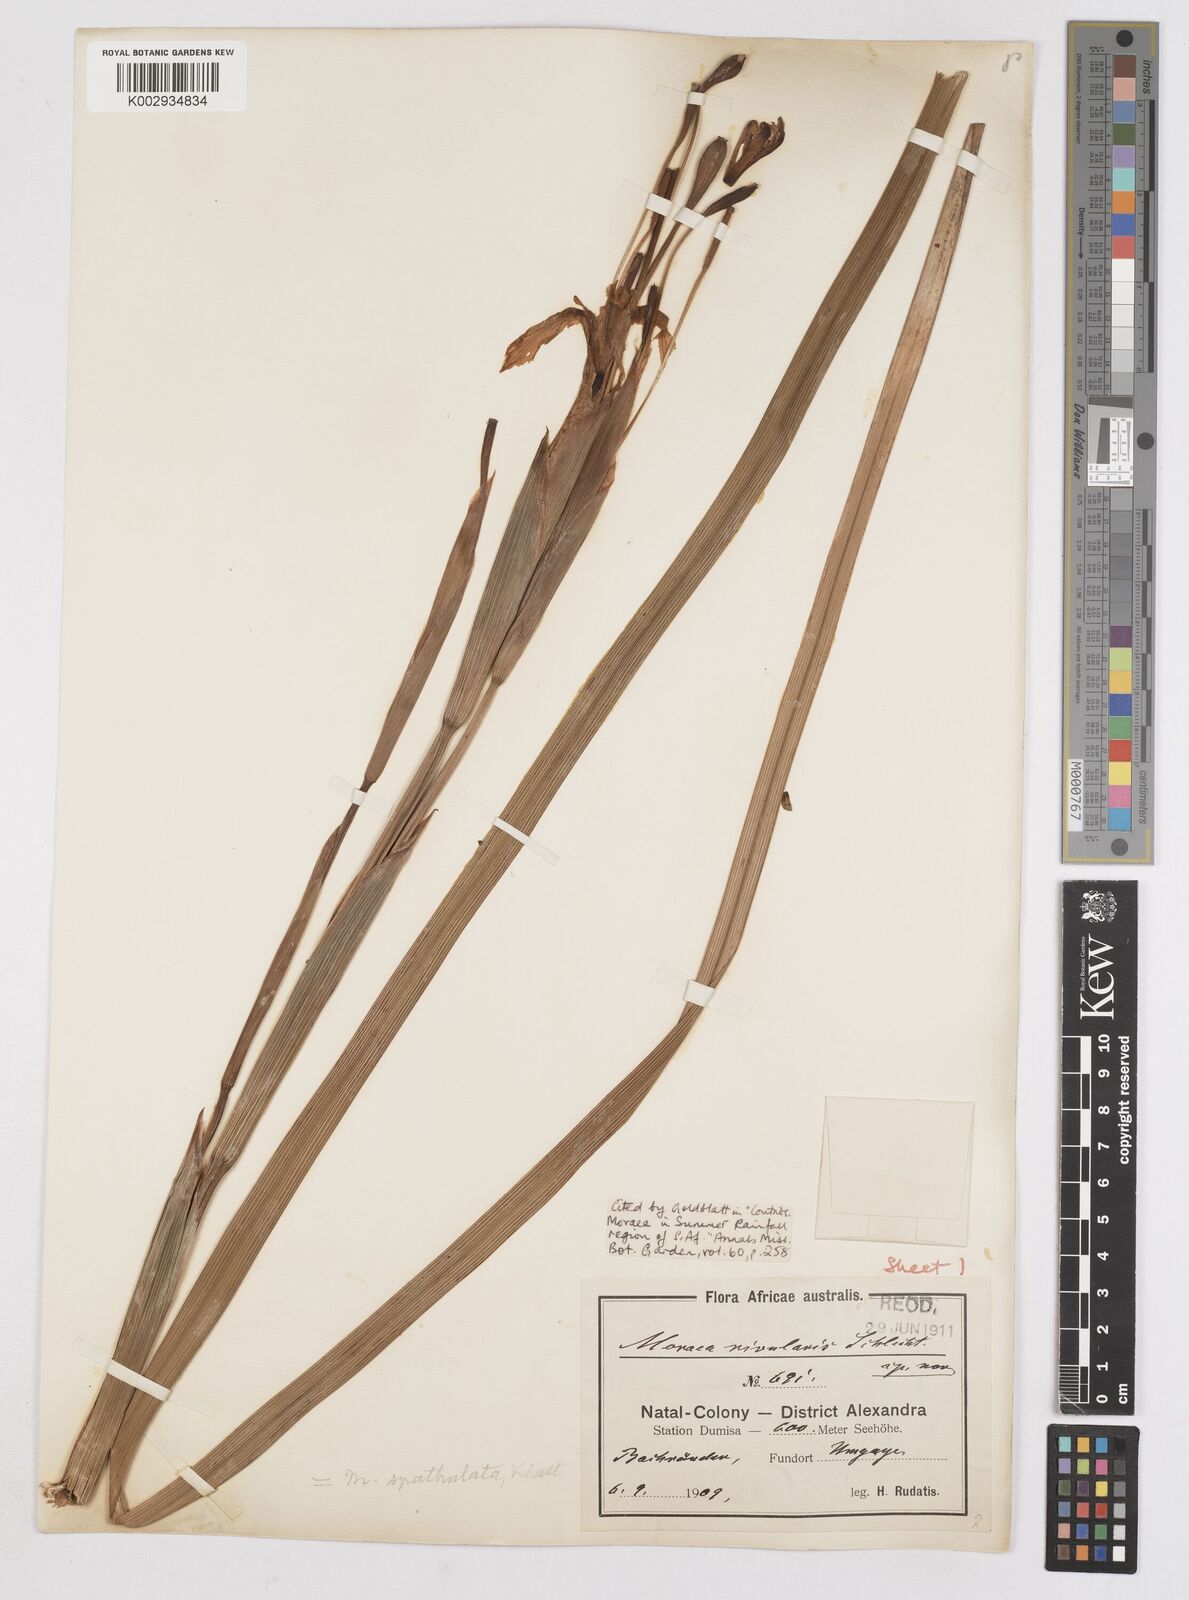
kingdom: Plantae
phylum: Tracheophyta
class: Liliopsida
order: Asparagales
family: Iridaceae
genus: Moraea
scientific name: Moraea huttonii
